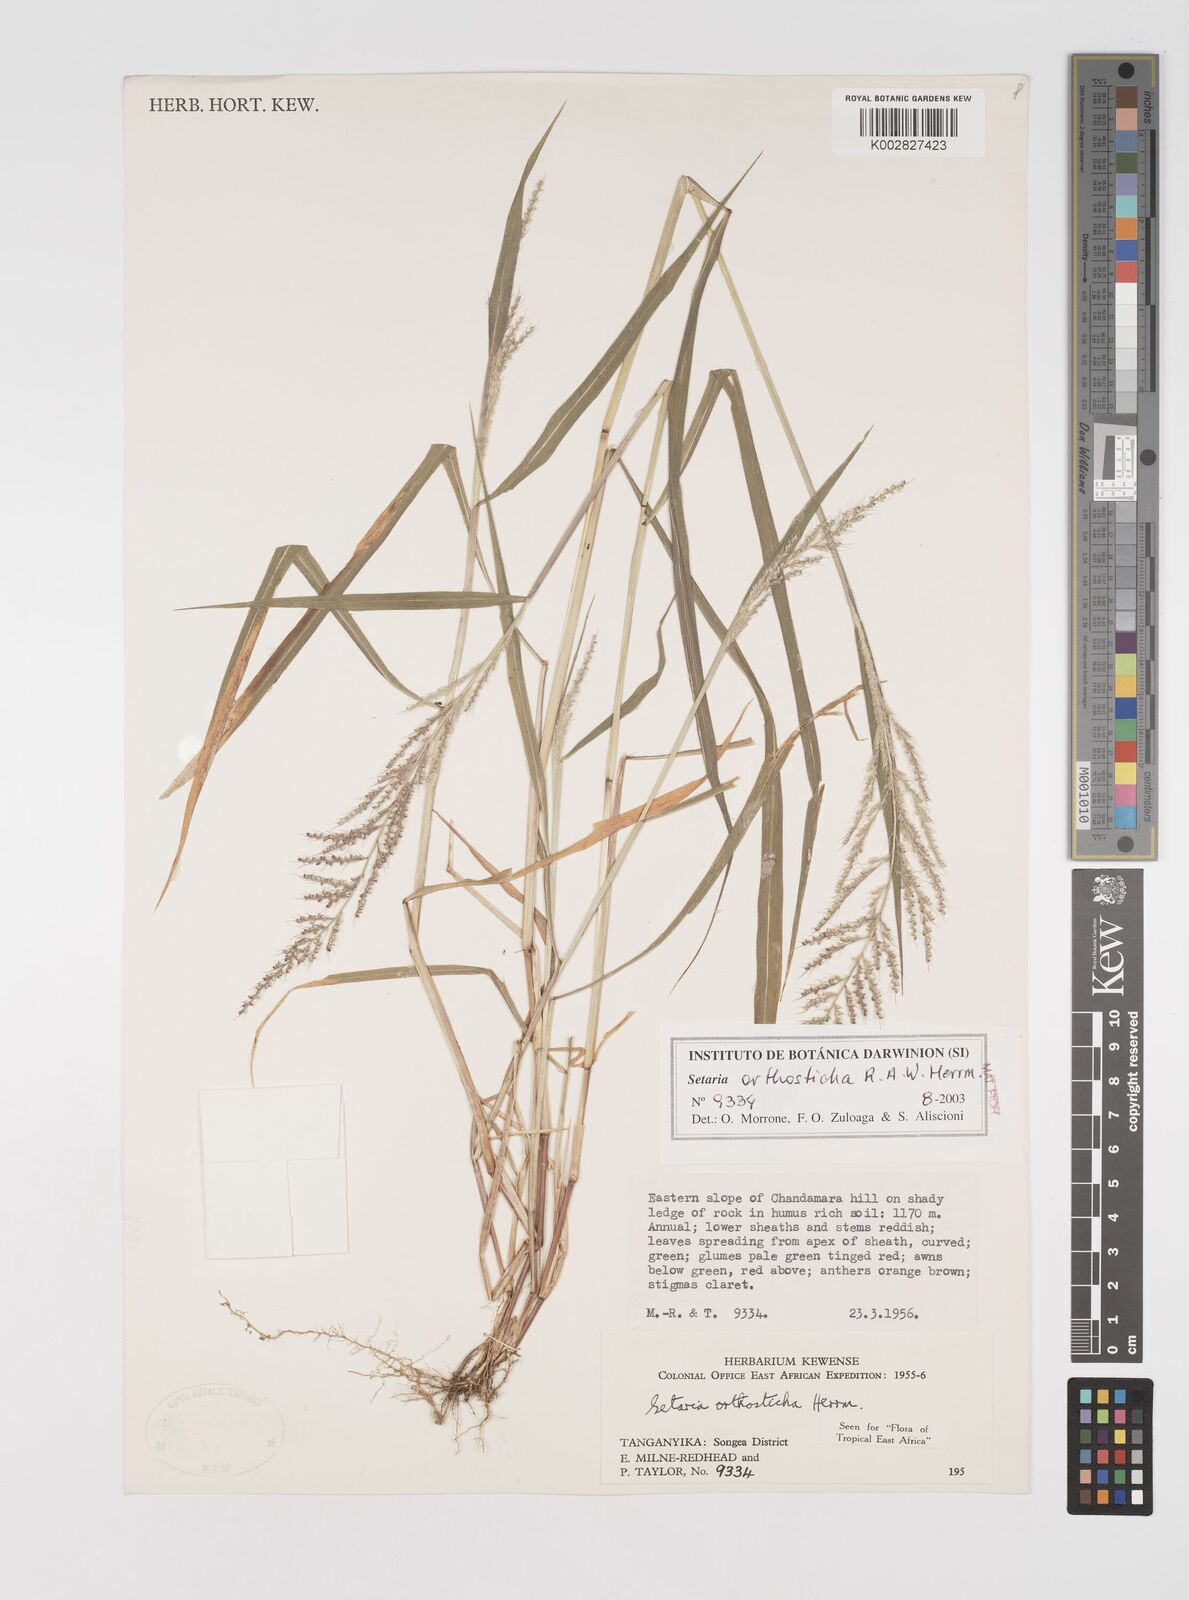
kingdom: Plantae
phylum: Tracheophyta
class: Liliopsida
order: Poales
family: Poaceae
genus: Setaria
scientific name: Setaria orthosticha
